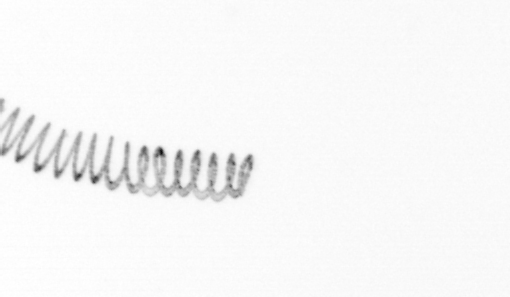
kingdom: Chromista
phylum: Ochrophyta
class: Bacillariophyceae
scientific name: Bacillariophyceae
